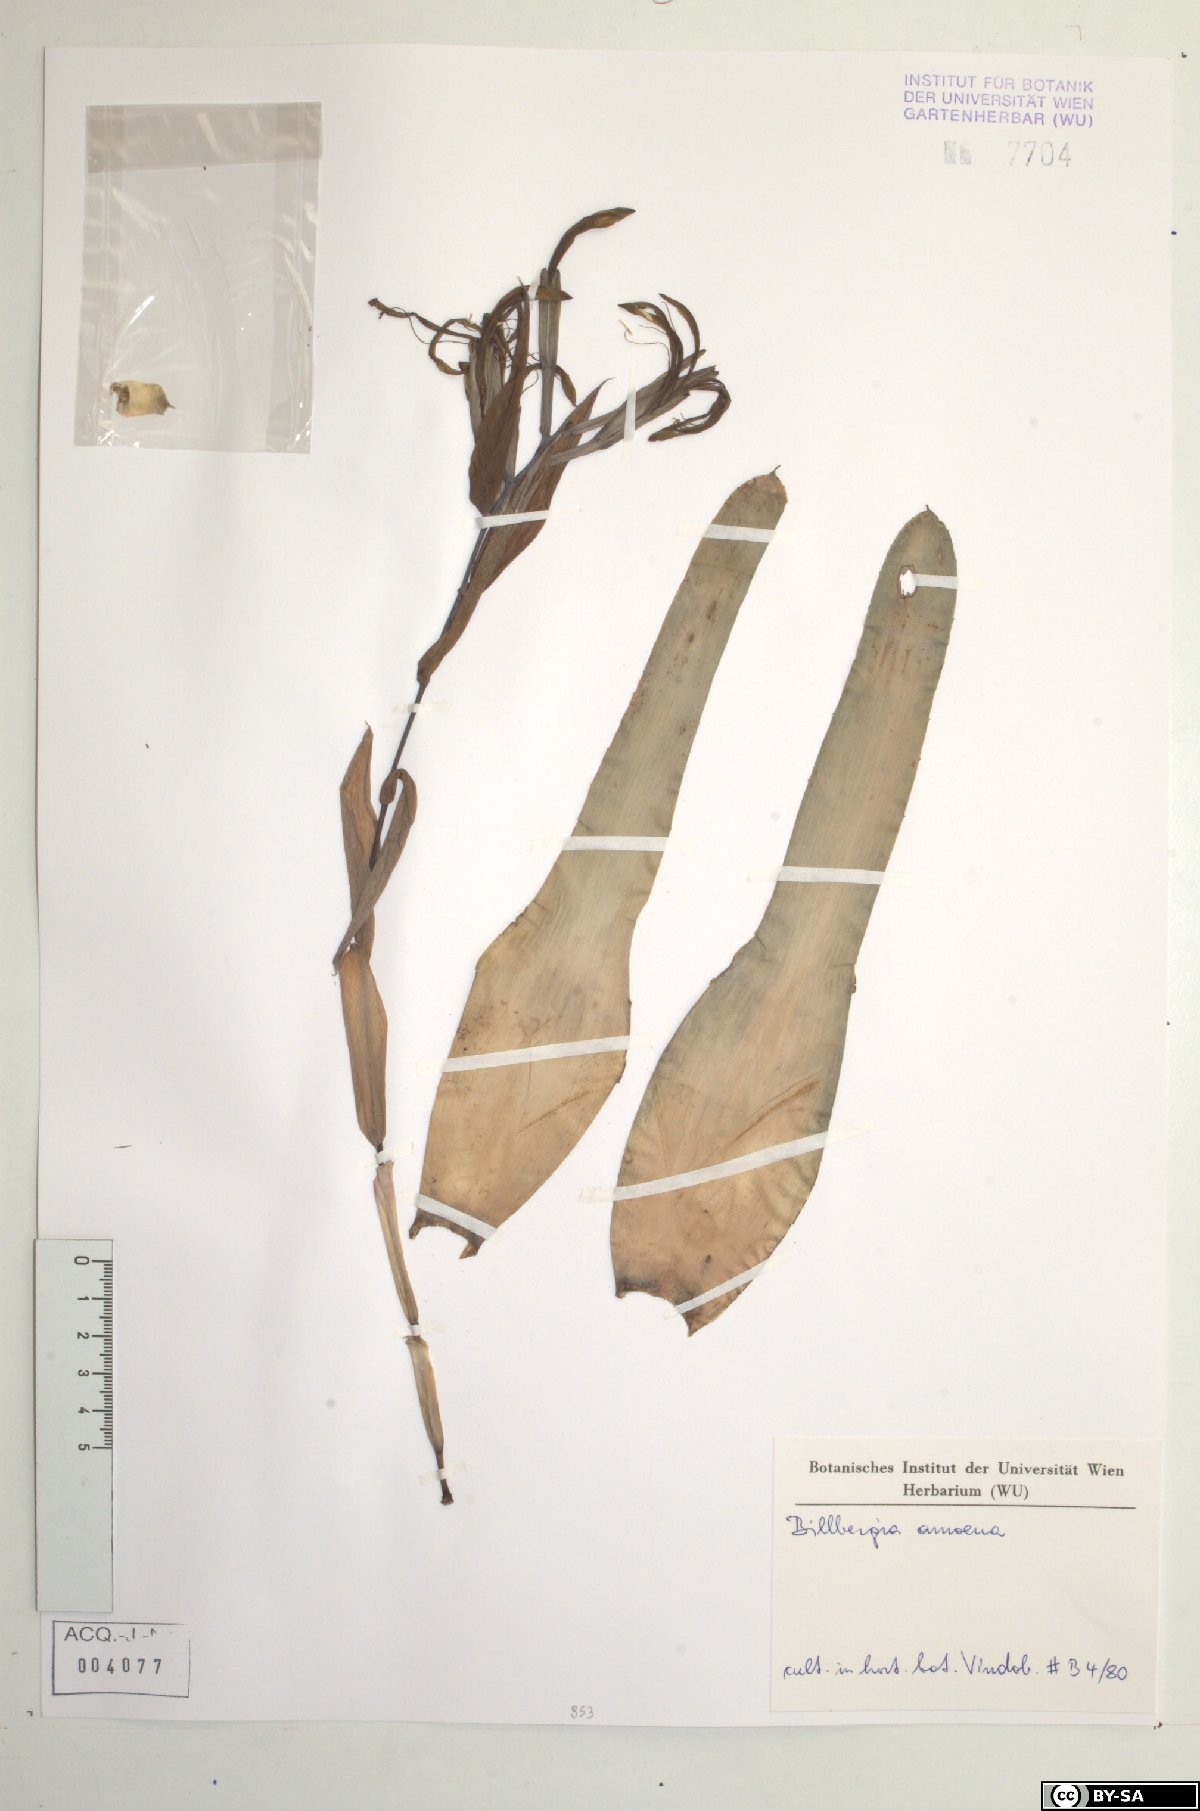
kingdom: Plantae
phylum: Tracheophyta
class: Liliopsida
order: Poales
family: Bromeliaceae
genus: Billbergia
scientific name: Billbergia
